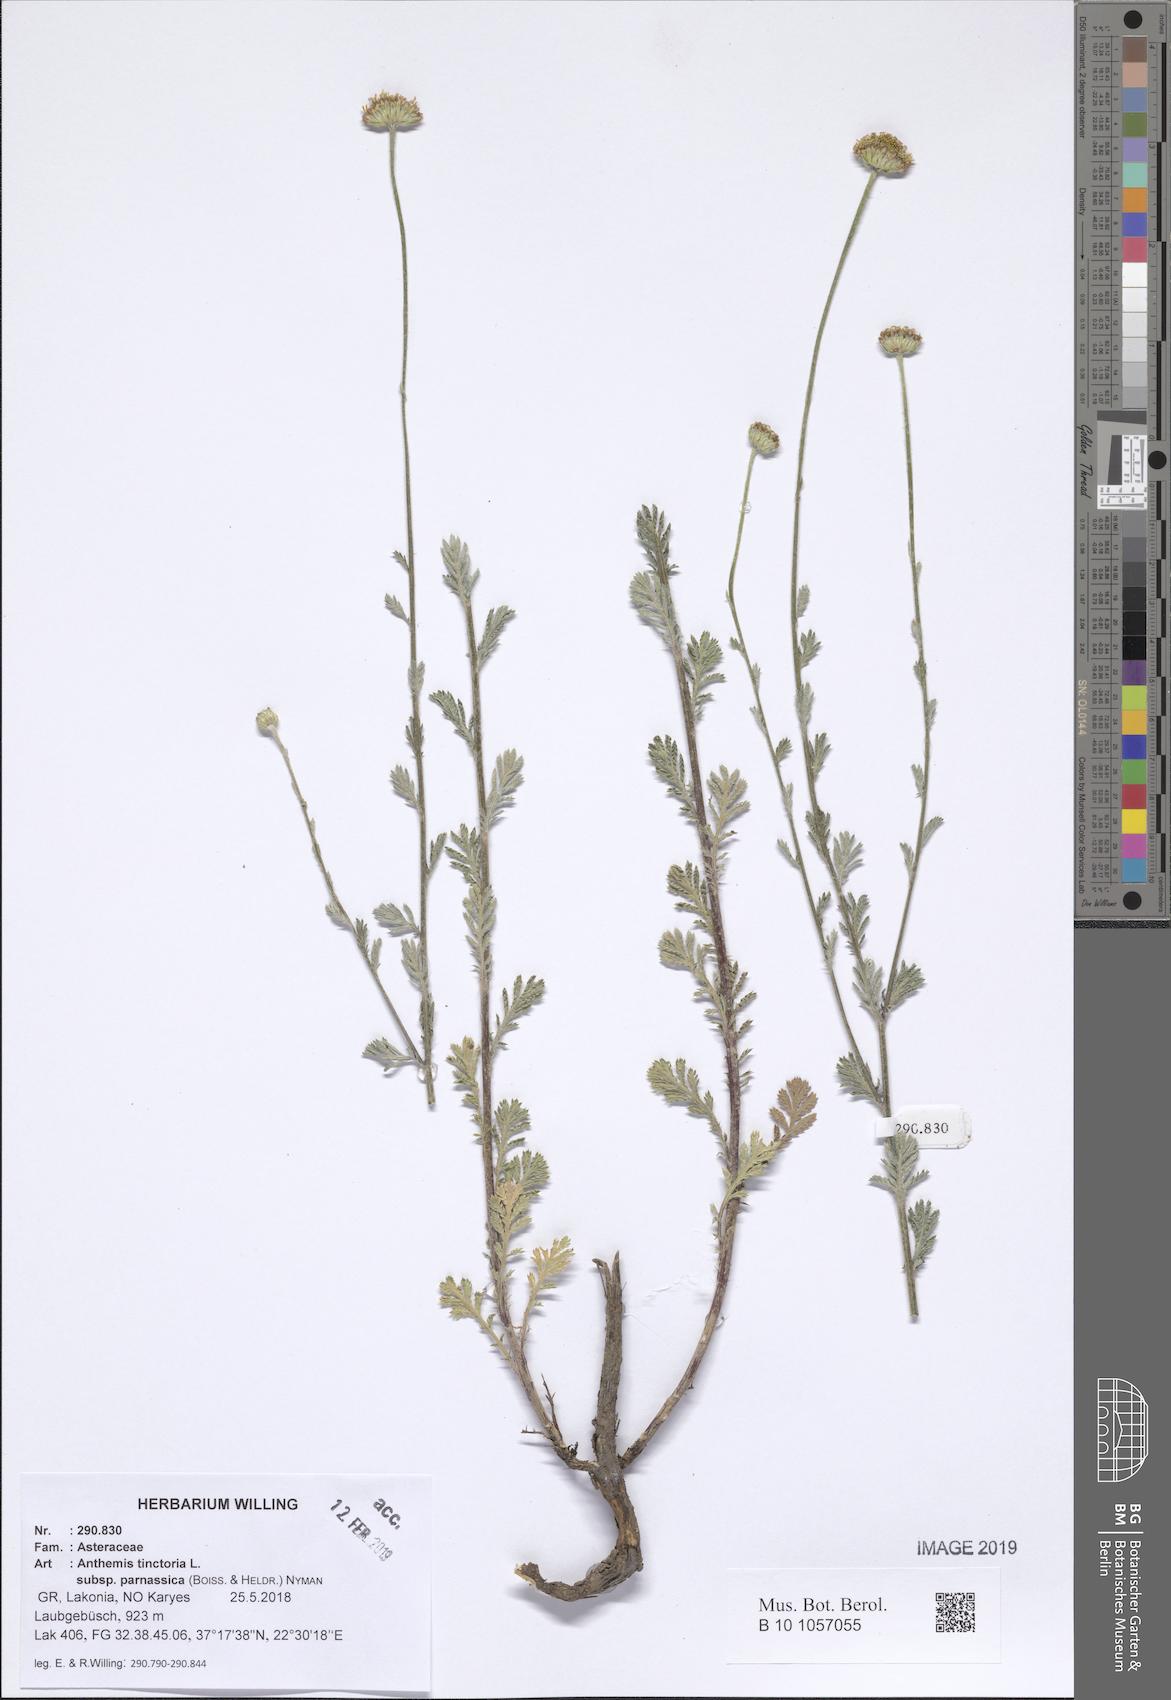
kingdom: Plantae
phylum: Tracheophyta
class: Magnoliopsida
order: Asterales
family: Asteraceae
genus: Cota
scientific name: Cota tinctoria
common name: Golden chamomile
